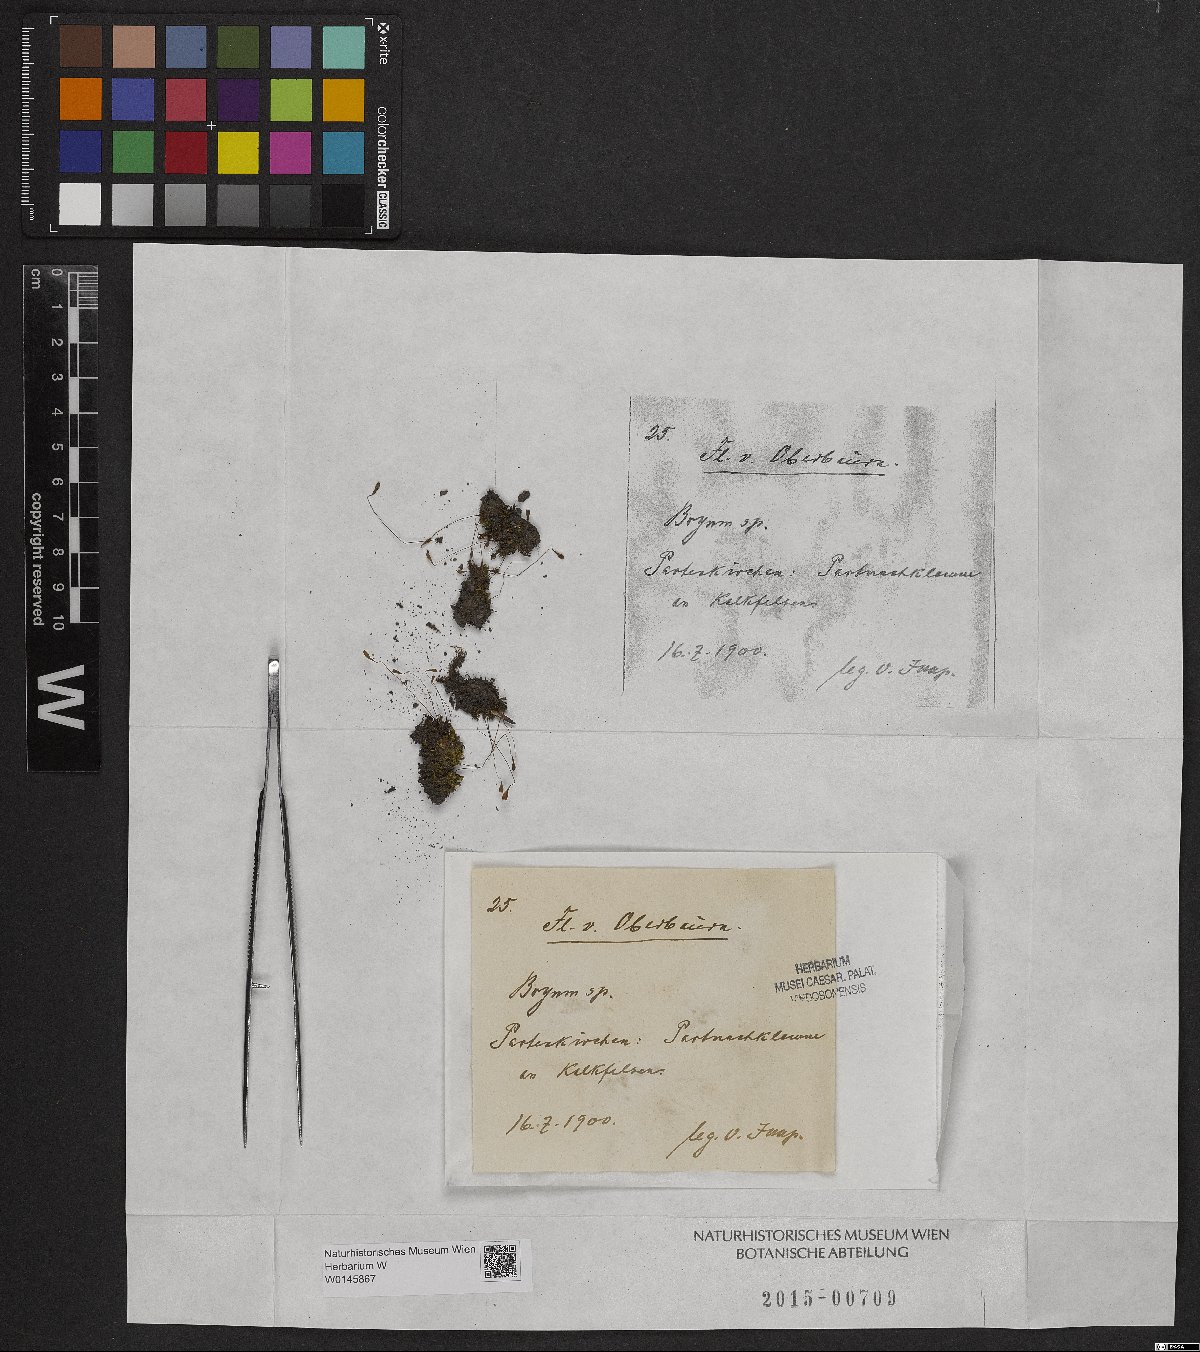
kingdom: Plantae
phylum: Bryophyta
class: Bryopsida
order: Bryales
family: Bryaceae
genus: Bryum
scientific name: Bryum
